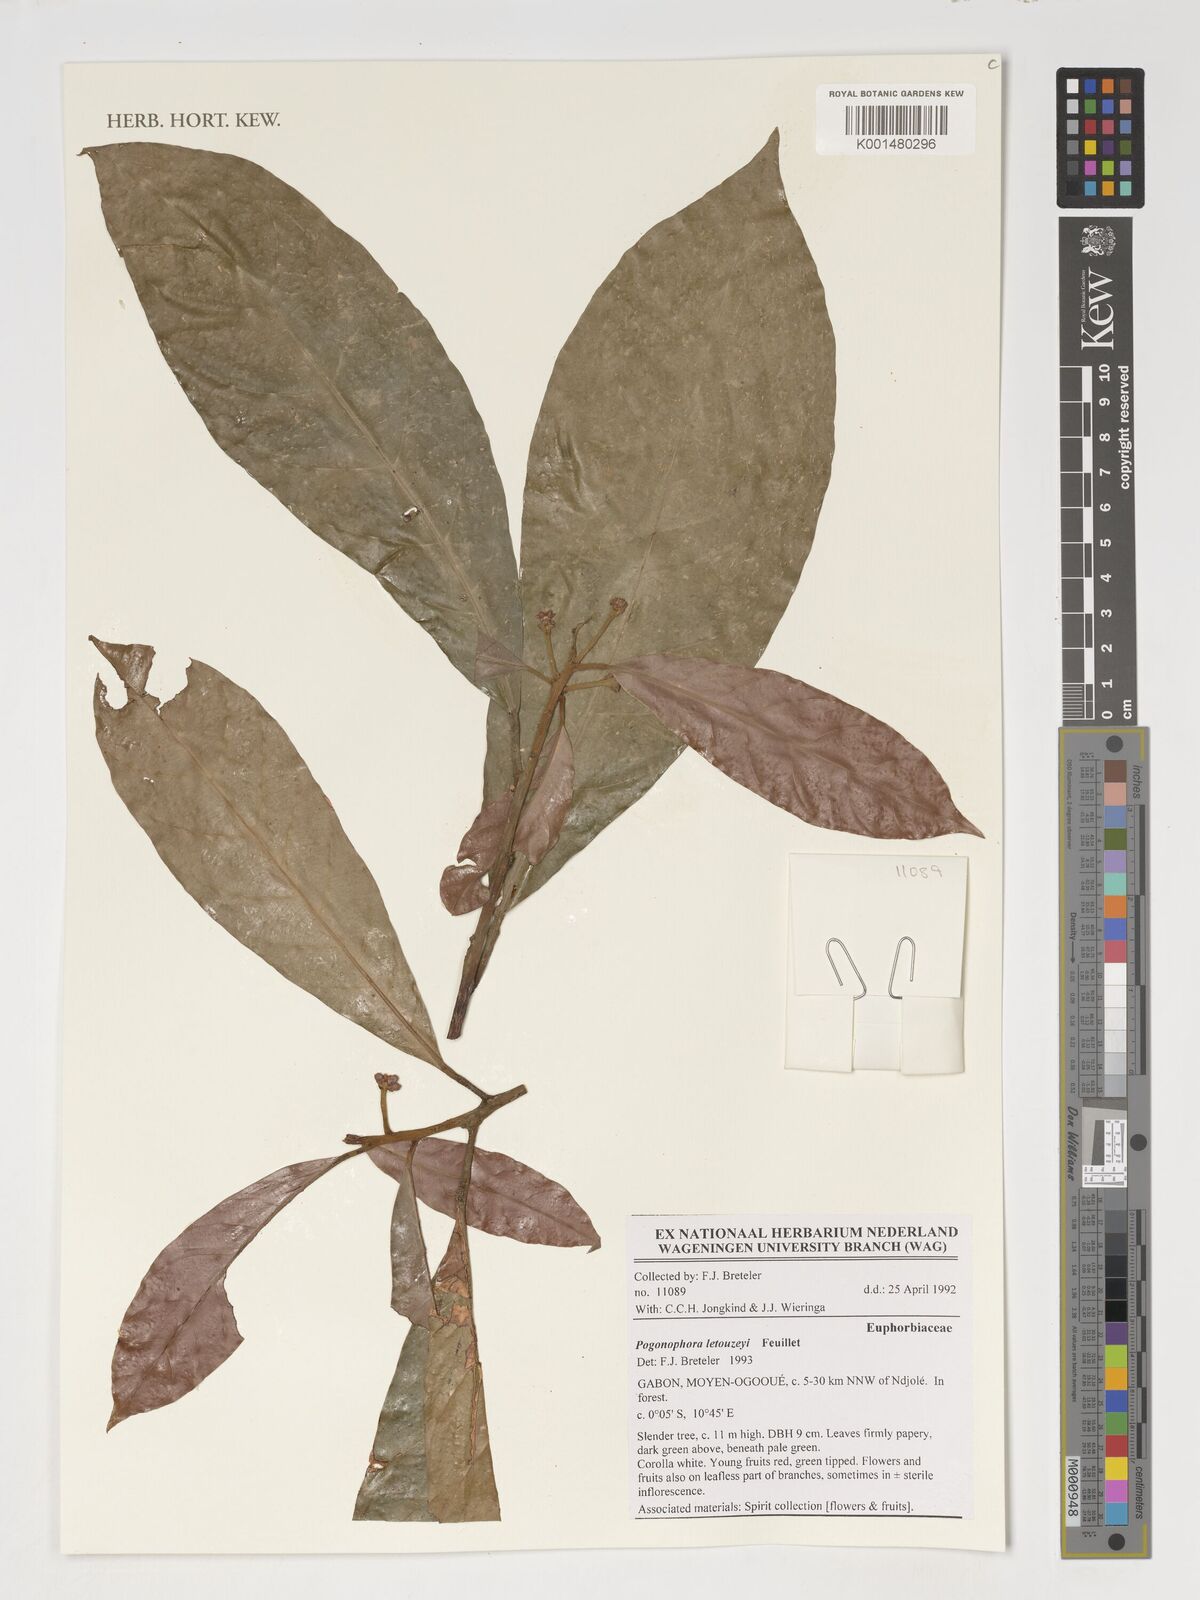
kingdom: Plantae
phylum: Tracheophyta
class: Magnoliopsida
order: Malpighiales
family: Peraceae
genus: Pogonophora
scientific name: Pogonophora letouzeyi
